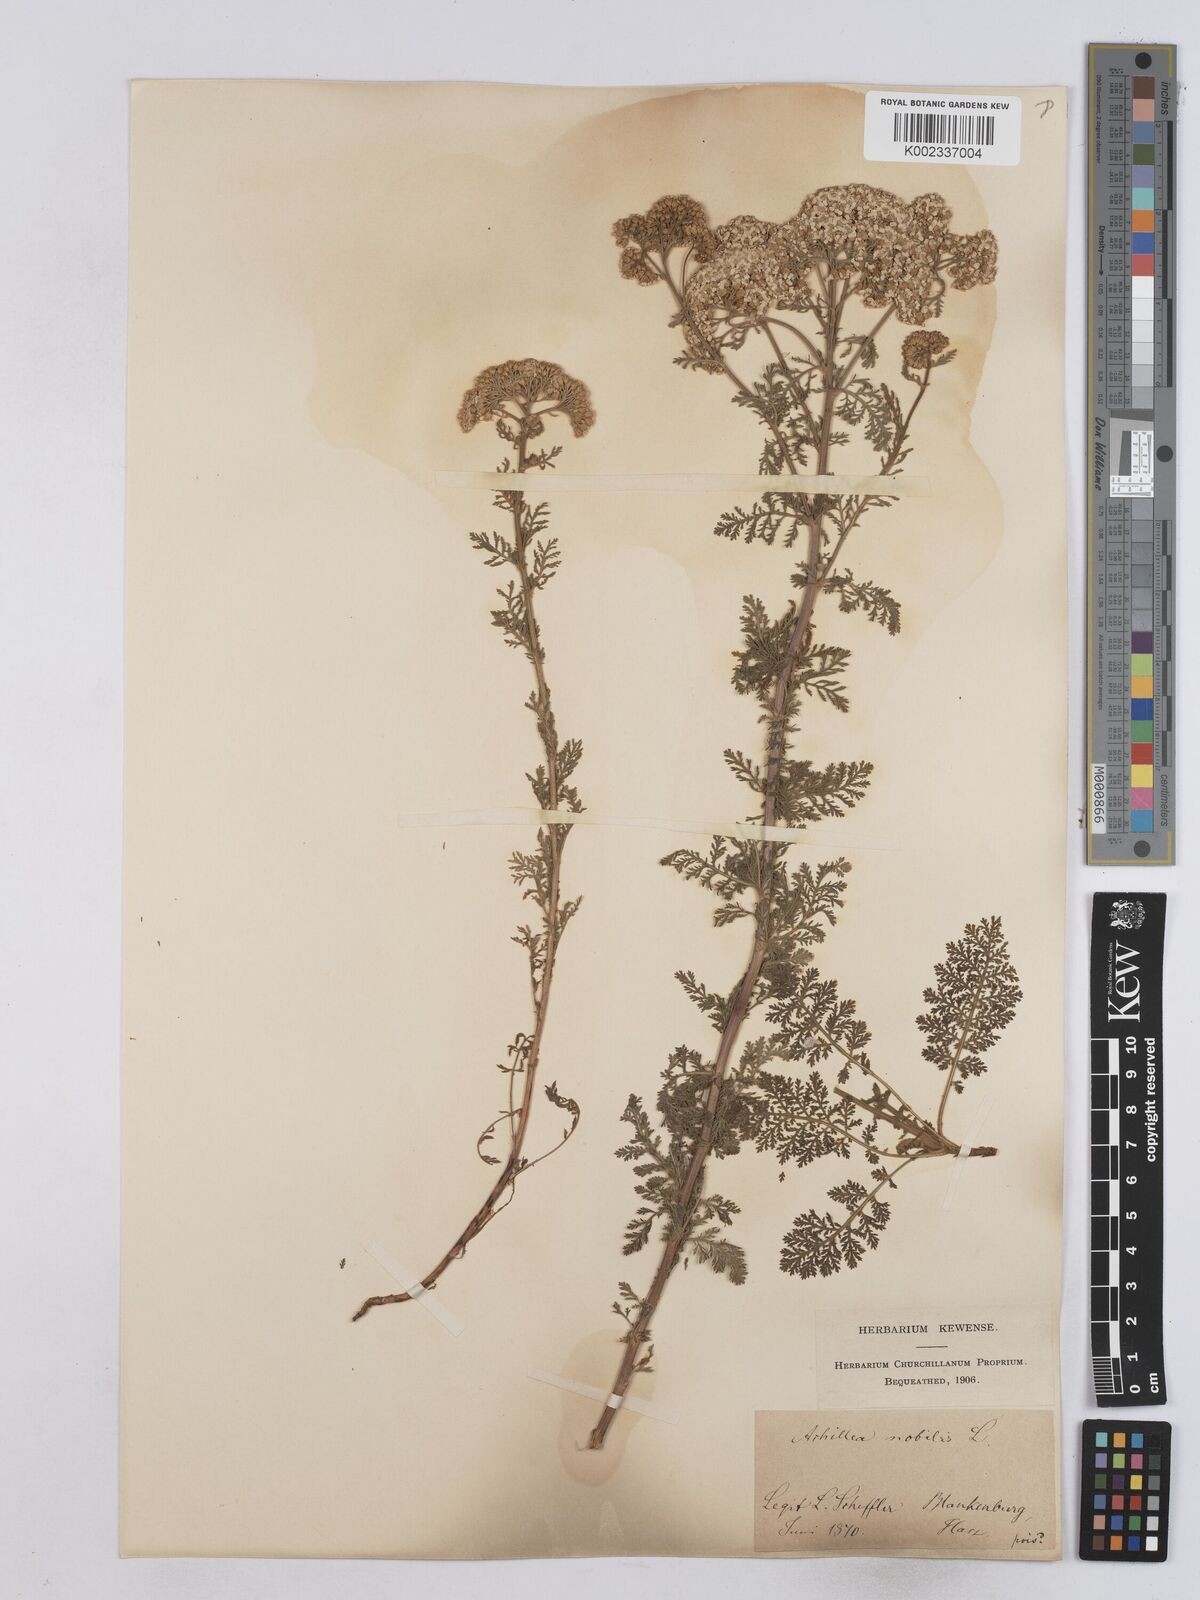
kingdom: Plantae
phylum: Tracheophyta
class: Magnoliopsida
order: Asterales
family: Asteraceae
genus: Achillea
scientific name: Achillea nobilis
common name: Noble yarrow
